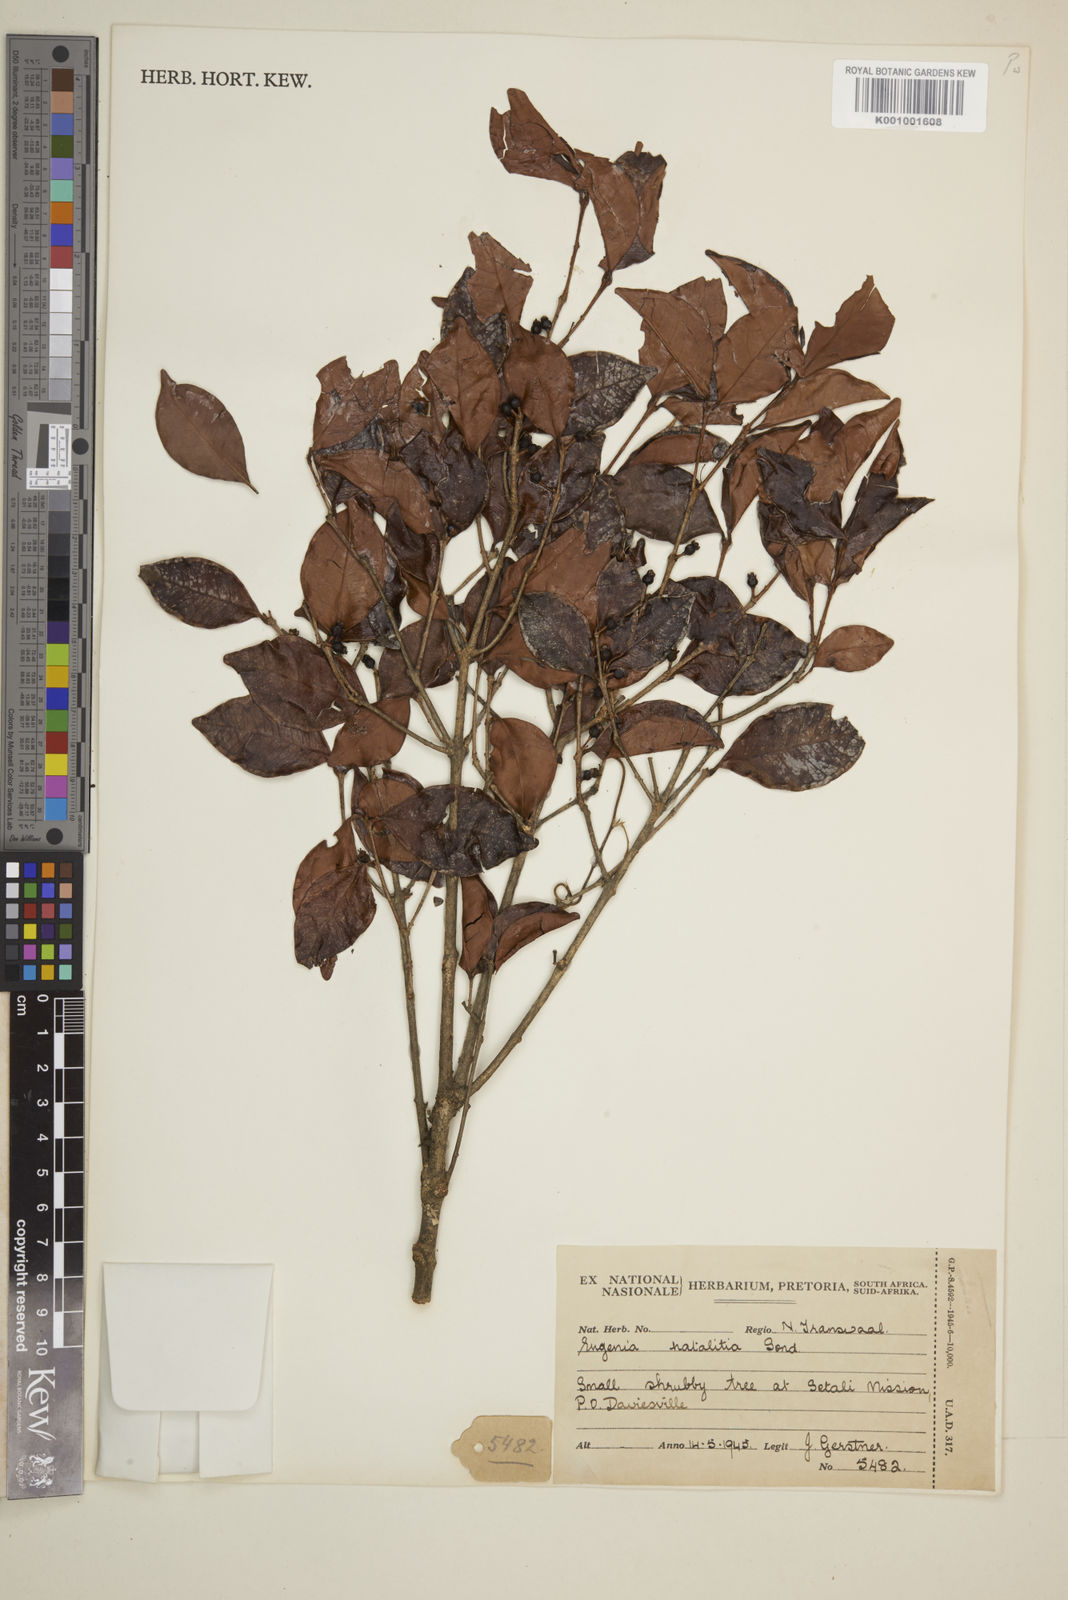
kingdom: Plantae
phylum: Tracheophyta
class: Magnoliopsida
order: Myrtales
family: Myrtaceae
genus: Eugenia
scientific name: Eugenia natalitia
